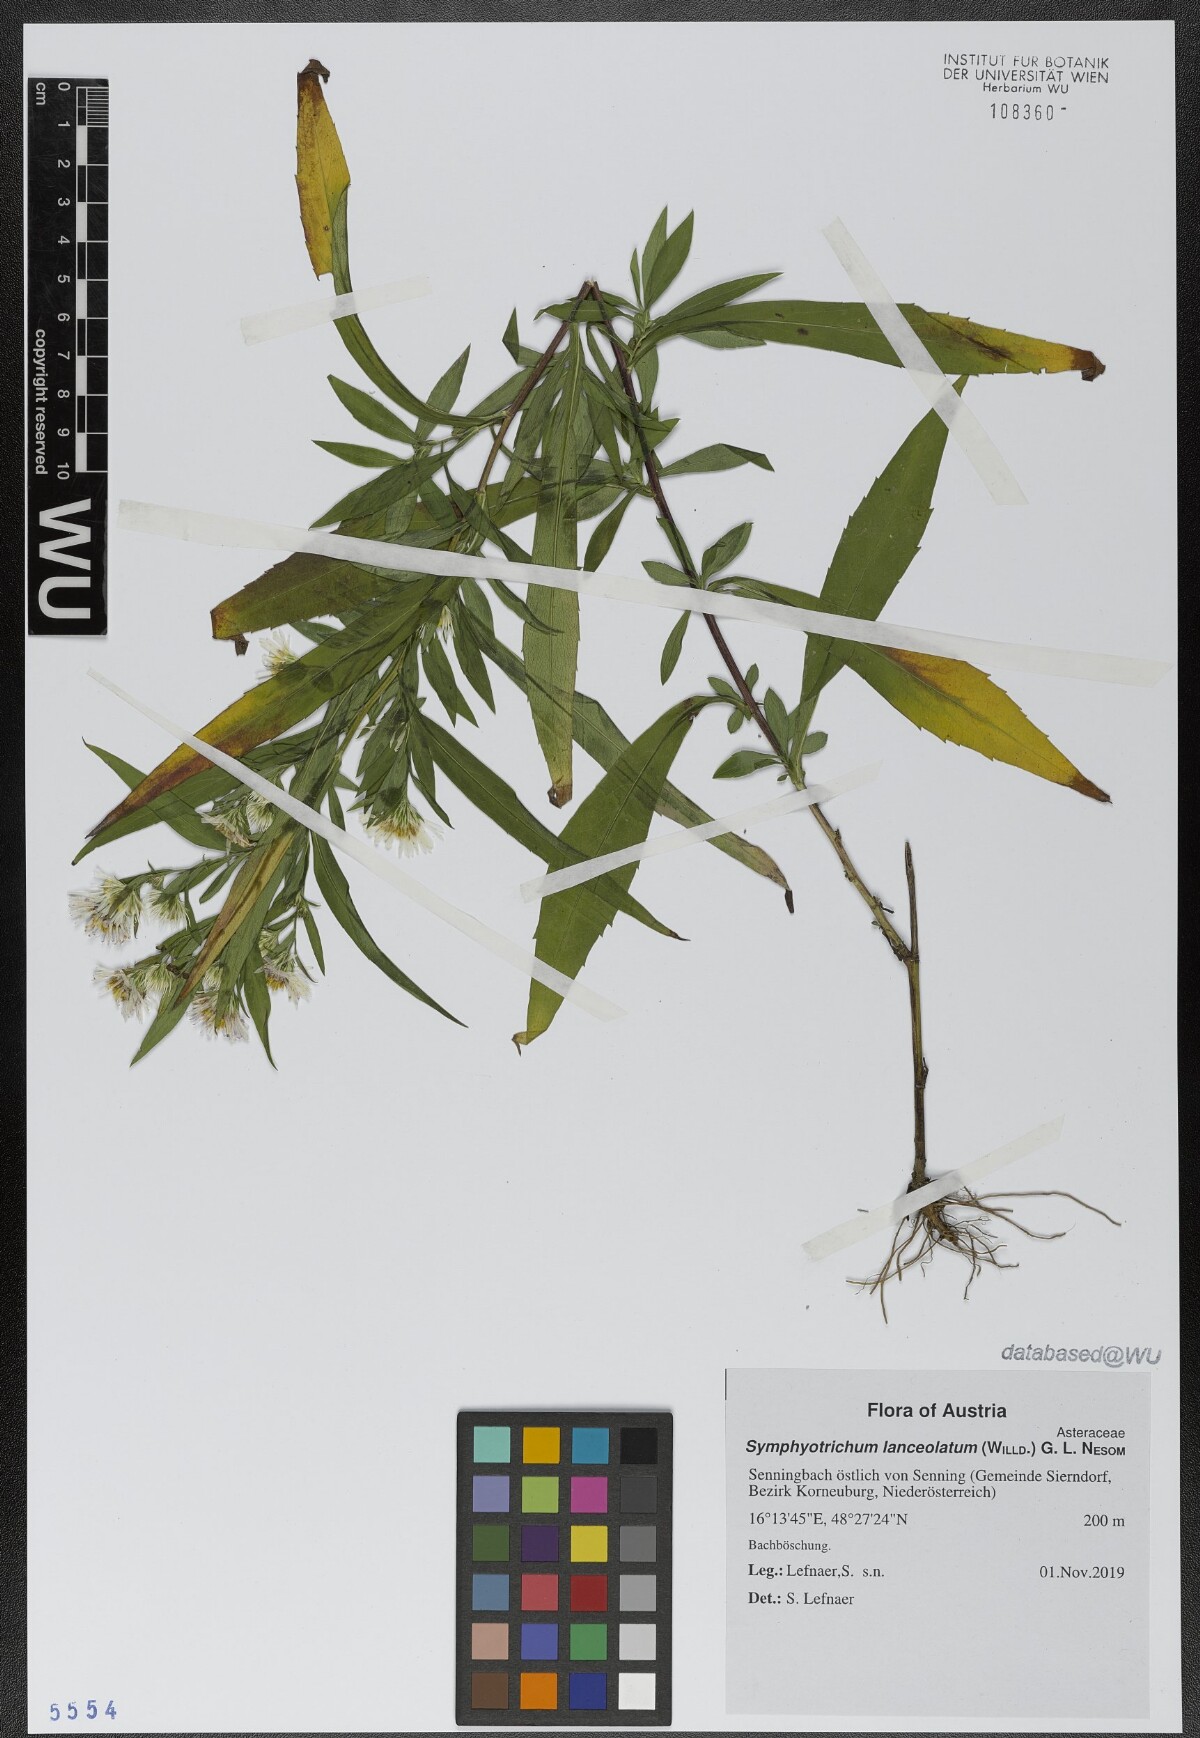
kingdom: Plantae
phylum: Tracheophyta
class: Magnoliopsida
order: Asterales
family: Asteraceae
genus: Symphyotrichum
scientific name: Symphyotrichum lanceolatum
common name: Panicled aster
